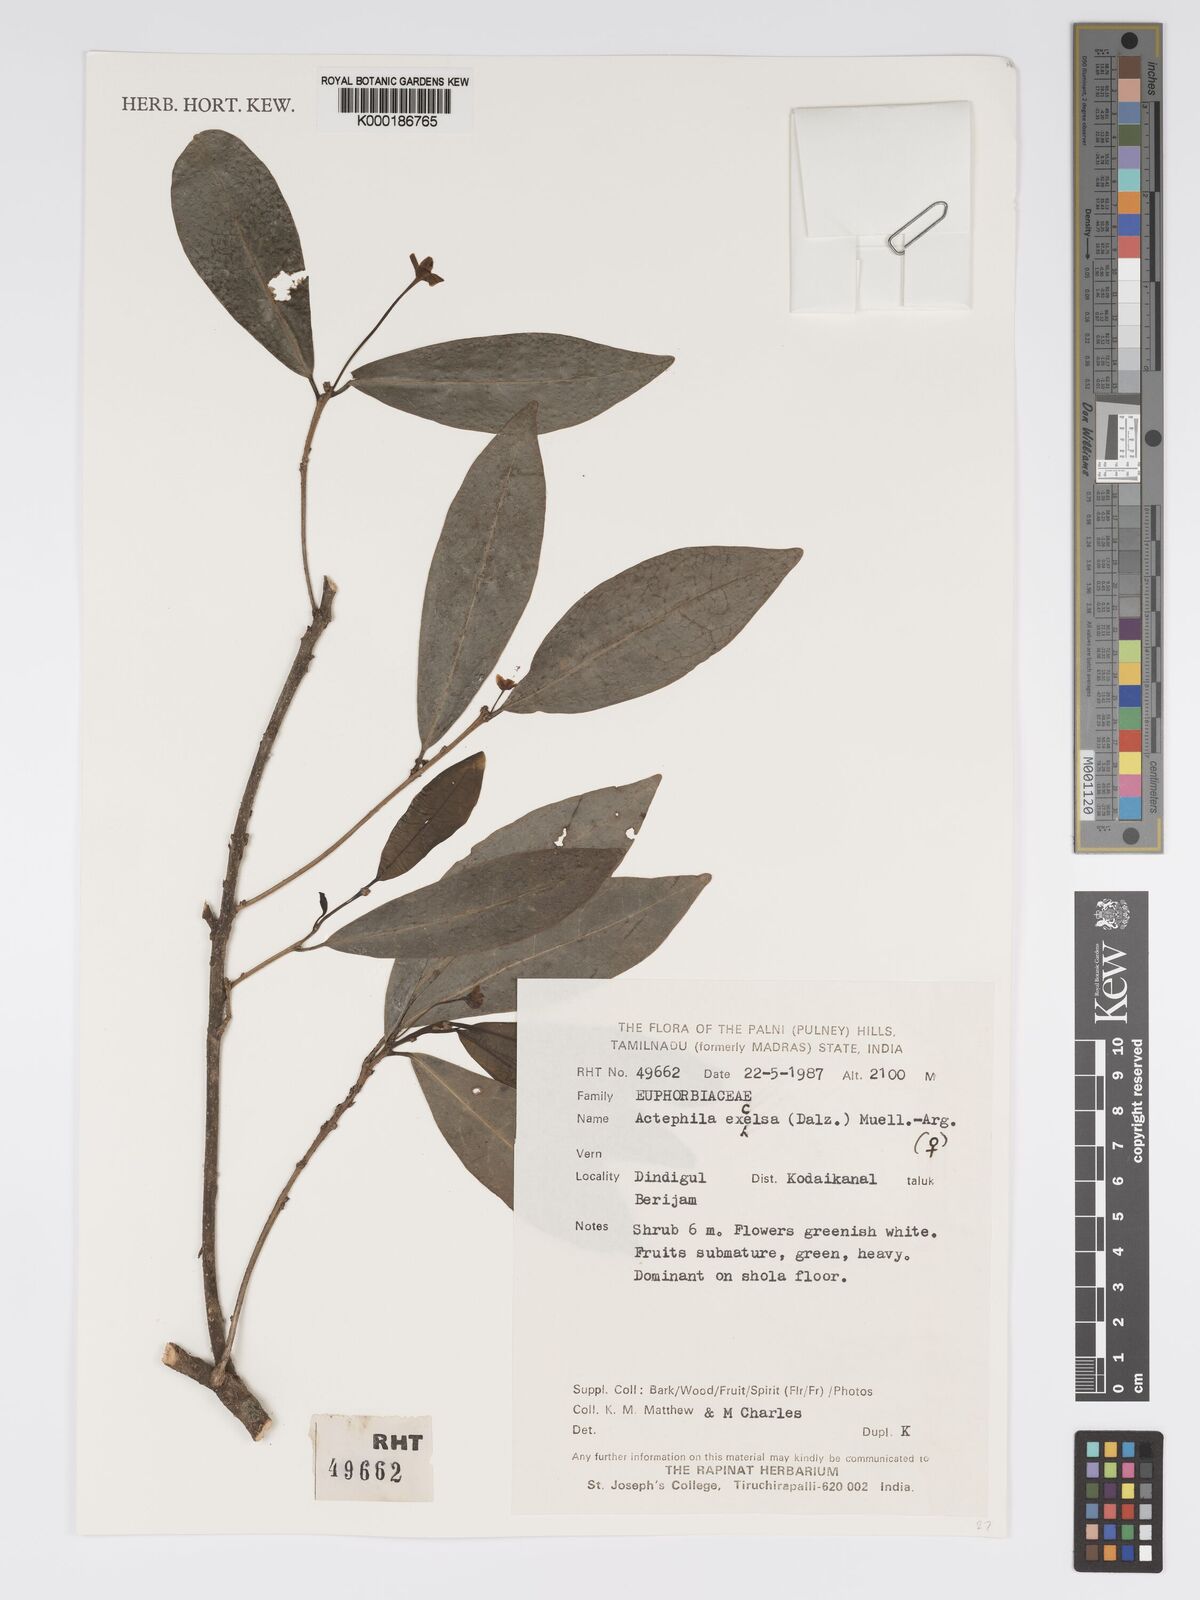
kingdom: Plantae
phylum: Tracheophyta
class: Magnoliopsida
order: Malpighiales
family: Phyllanthaceae
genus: Actephila
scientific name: Actephila excelsa
